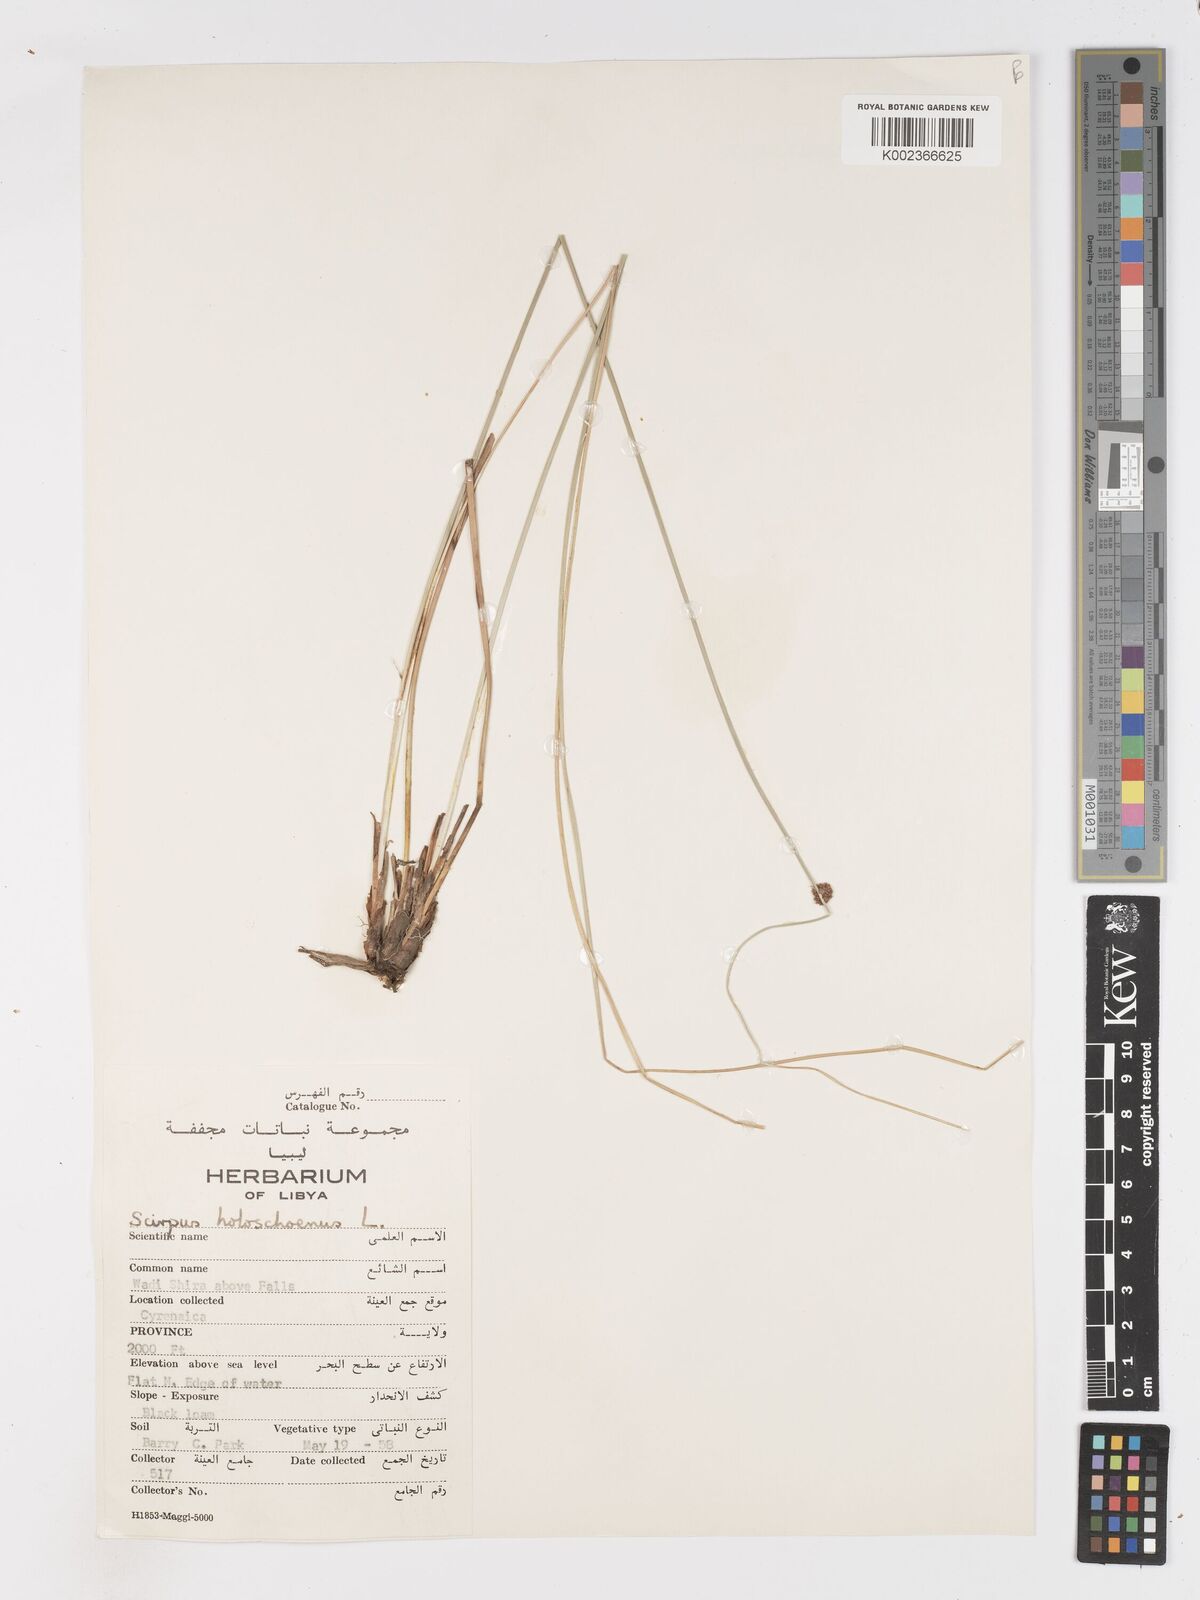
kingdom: Plantae
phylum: Tracheophyta
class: Liliopsida
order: Poales
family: Cyperaceae
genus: Scirpoides
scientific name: Scirpoides holoschoenus
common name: Round-headed club-rush
